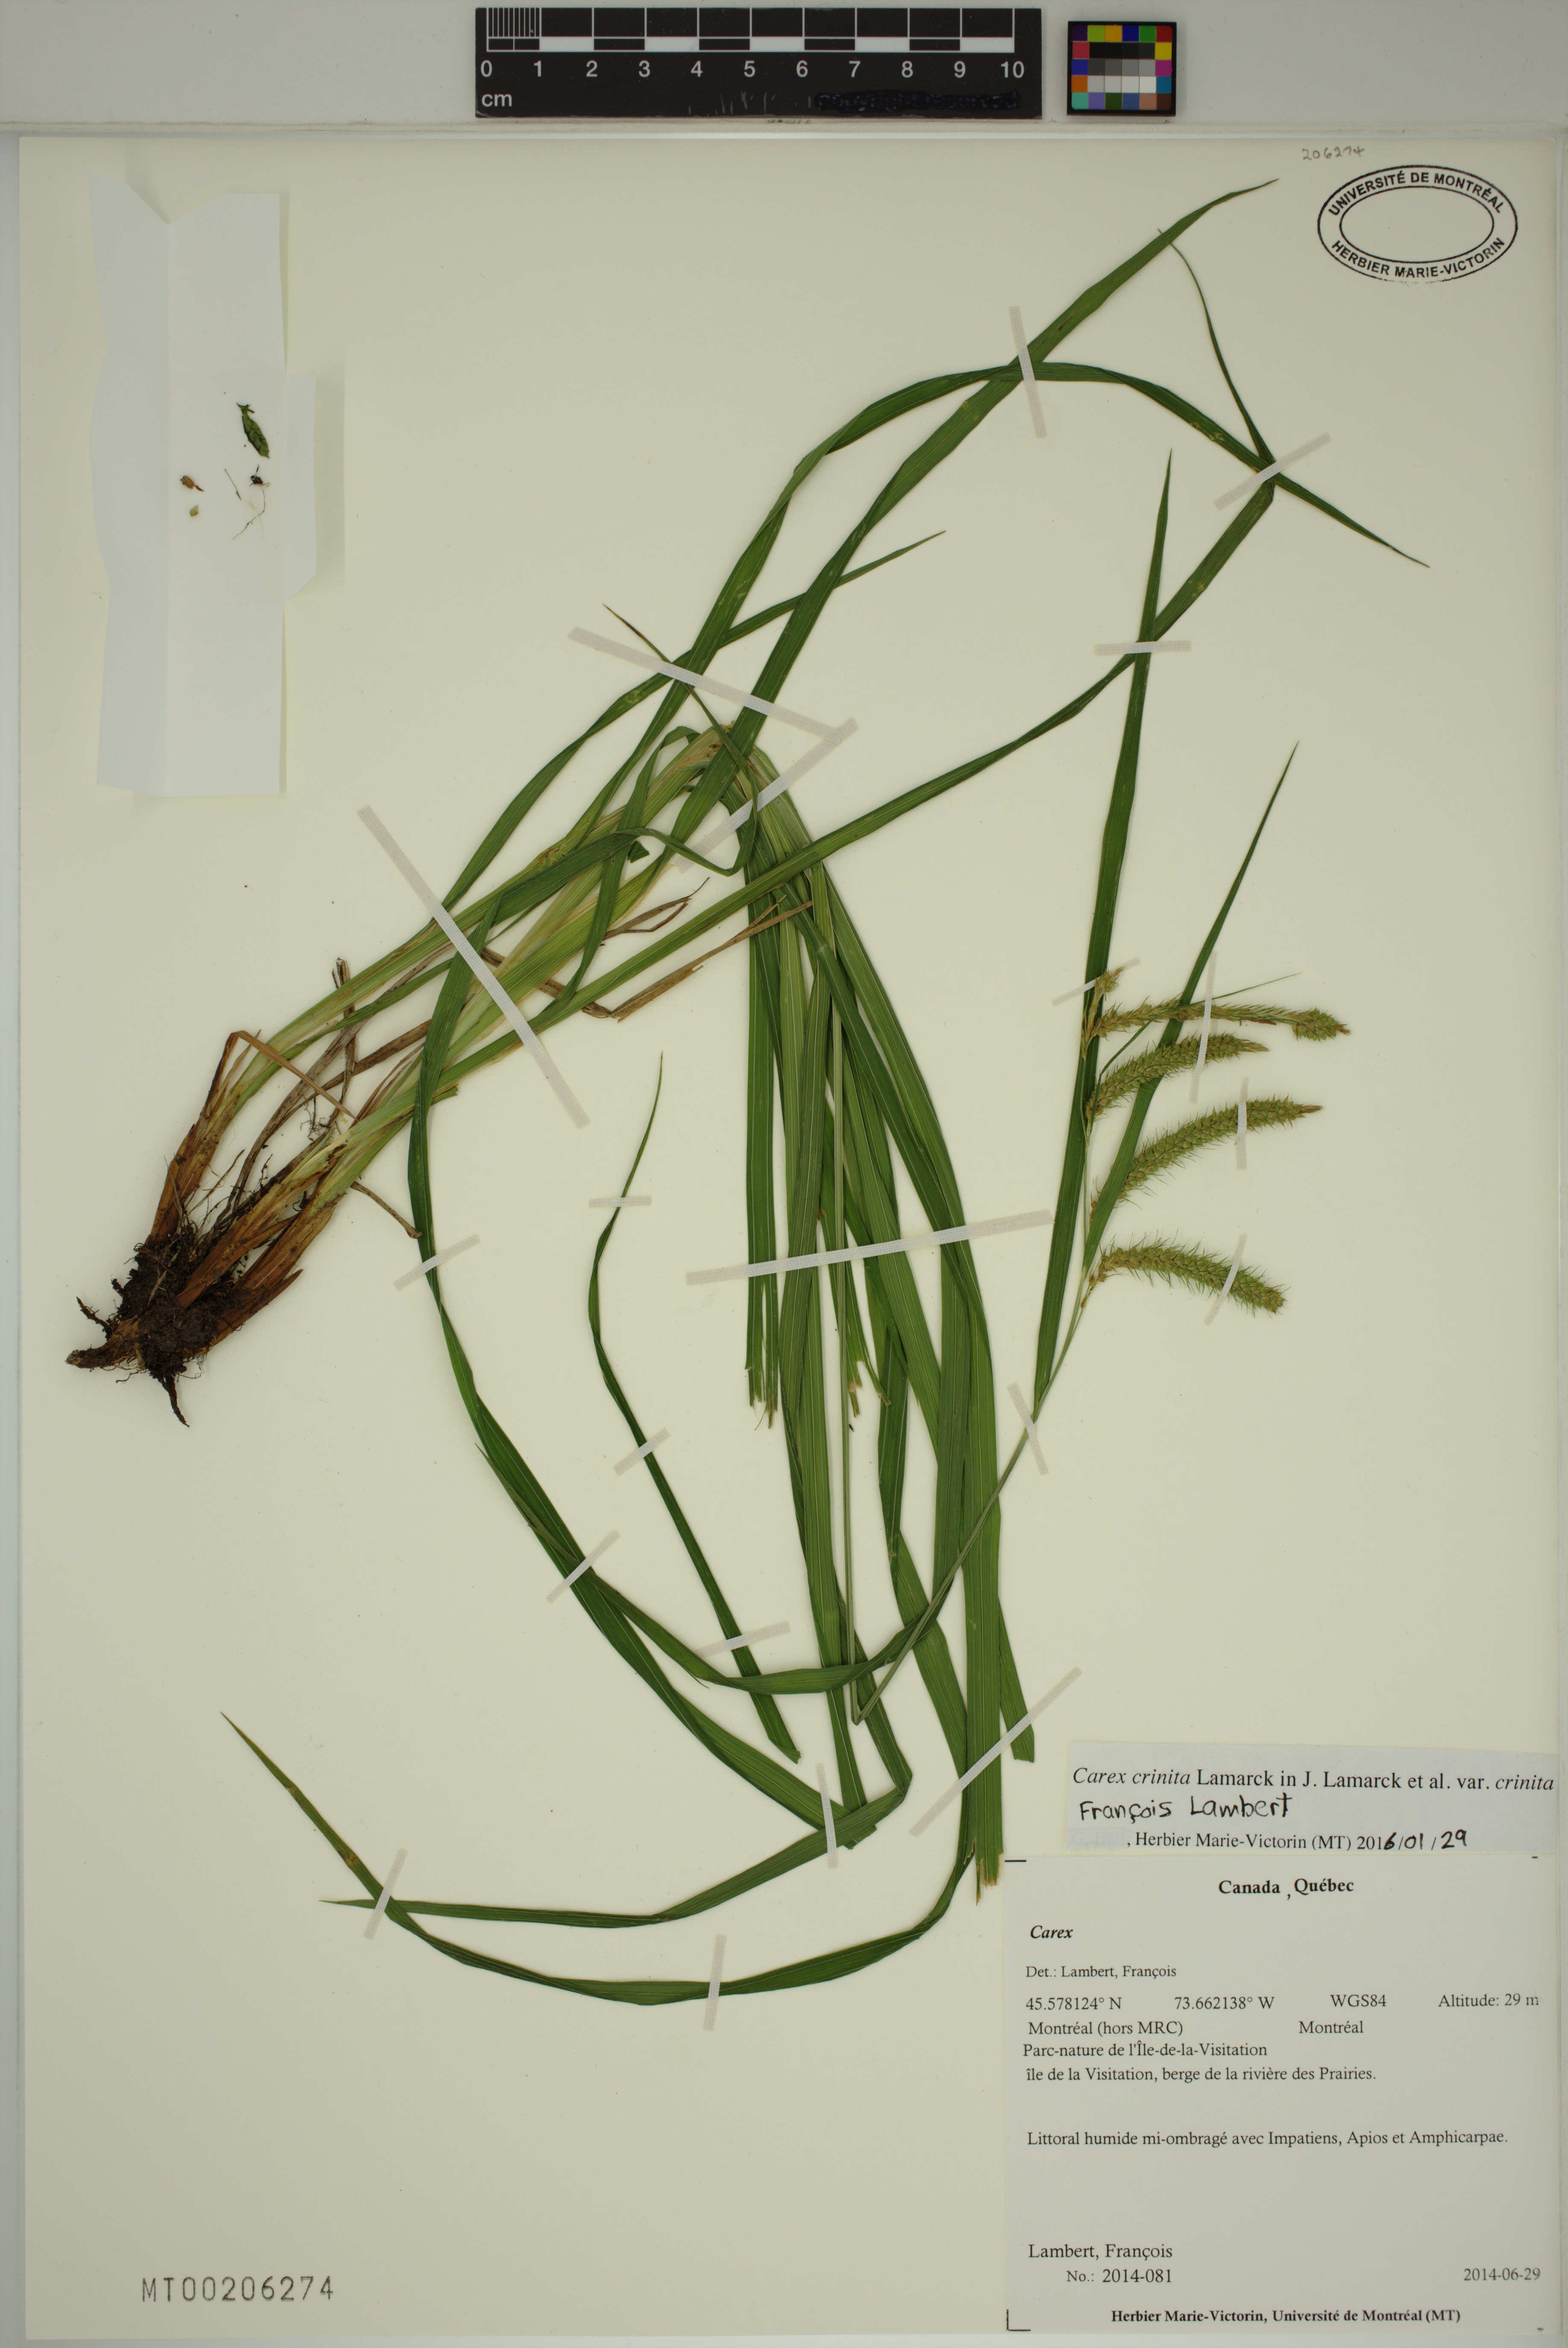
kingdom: Plantae
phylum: Tracheophyta
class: Liliopsida
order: Poales
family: Cyperaceae
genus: Carex
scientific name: Carex crinita
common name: Fringed sedge
